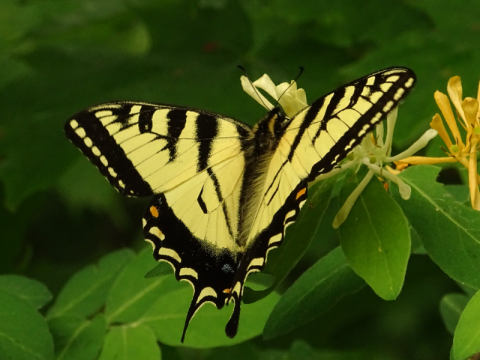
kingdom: Animalia
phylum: Arthropoda
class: Insecta
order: Lepidoptera
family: Papilionidae
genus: Pterourus
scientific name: Pterourus canadensis
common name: Canadian Tiger Swallowtail
